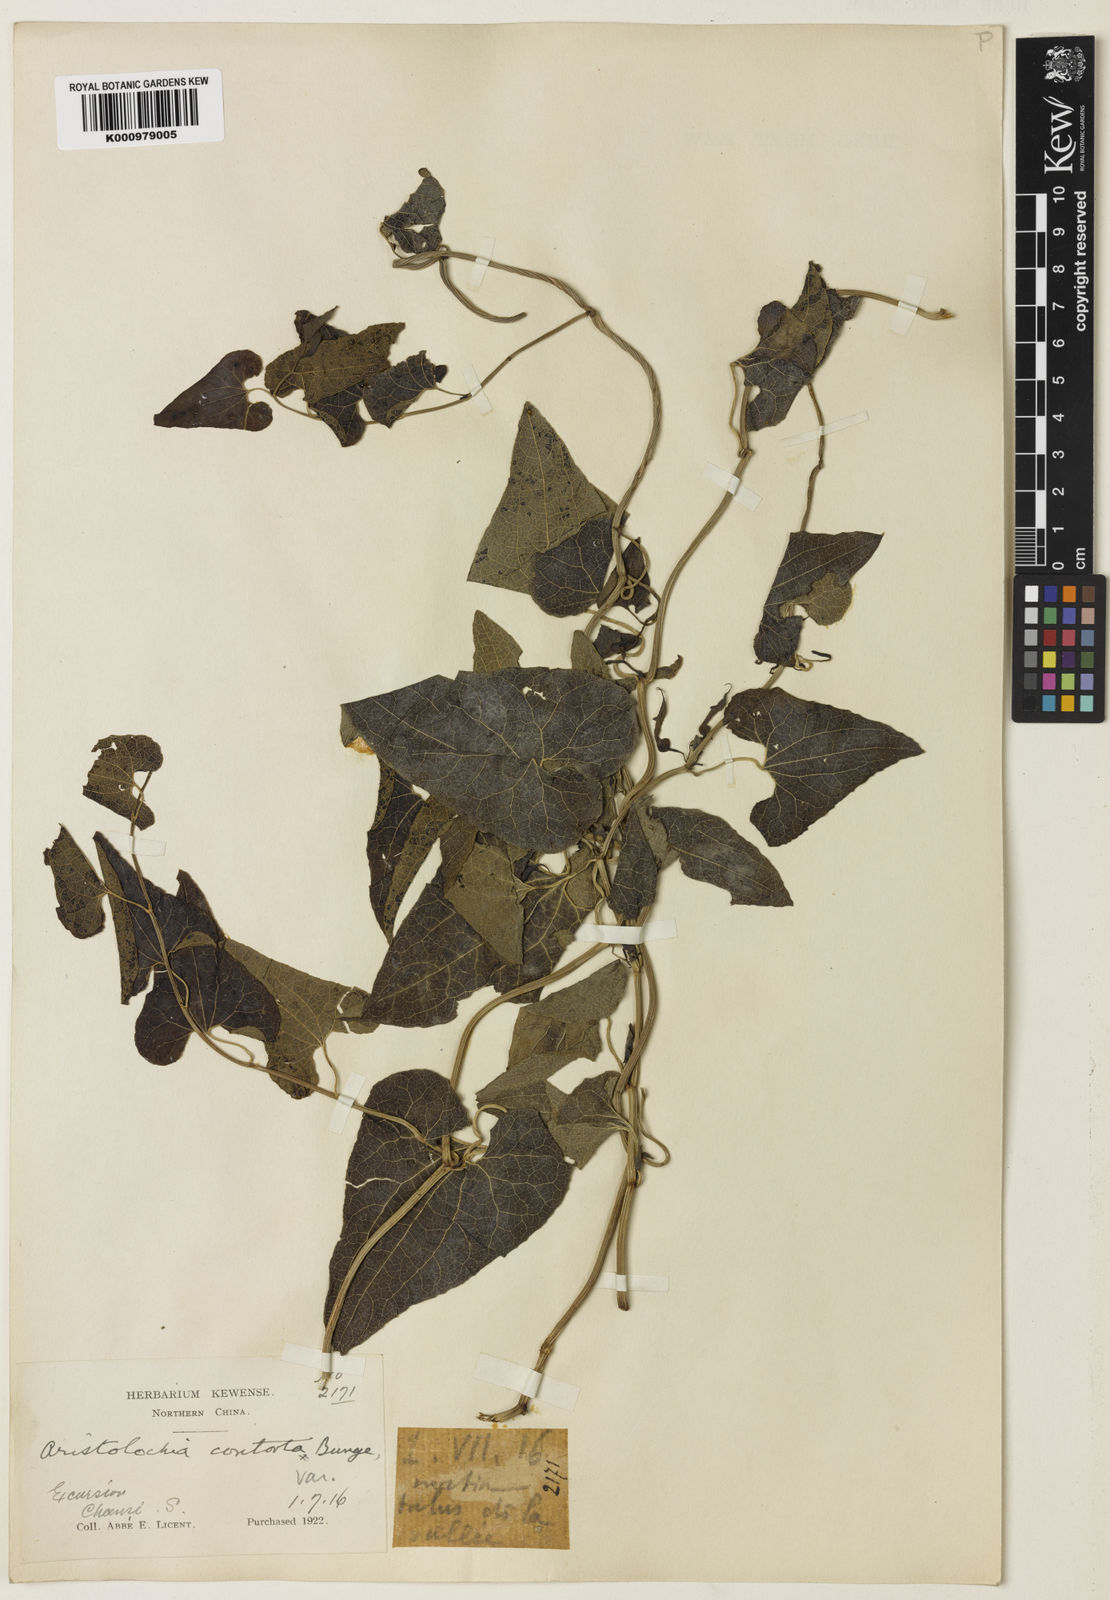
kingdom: Plantae
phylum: Tracheophyta
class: Magnoliopsida
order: Piperales
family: Aristolochiaceae
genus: Aristolochia
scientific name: Aristolochia contorta
